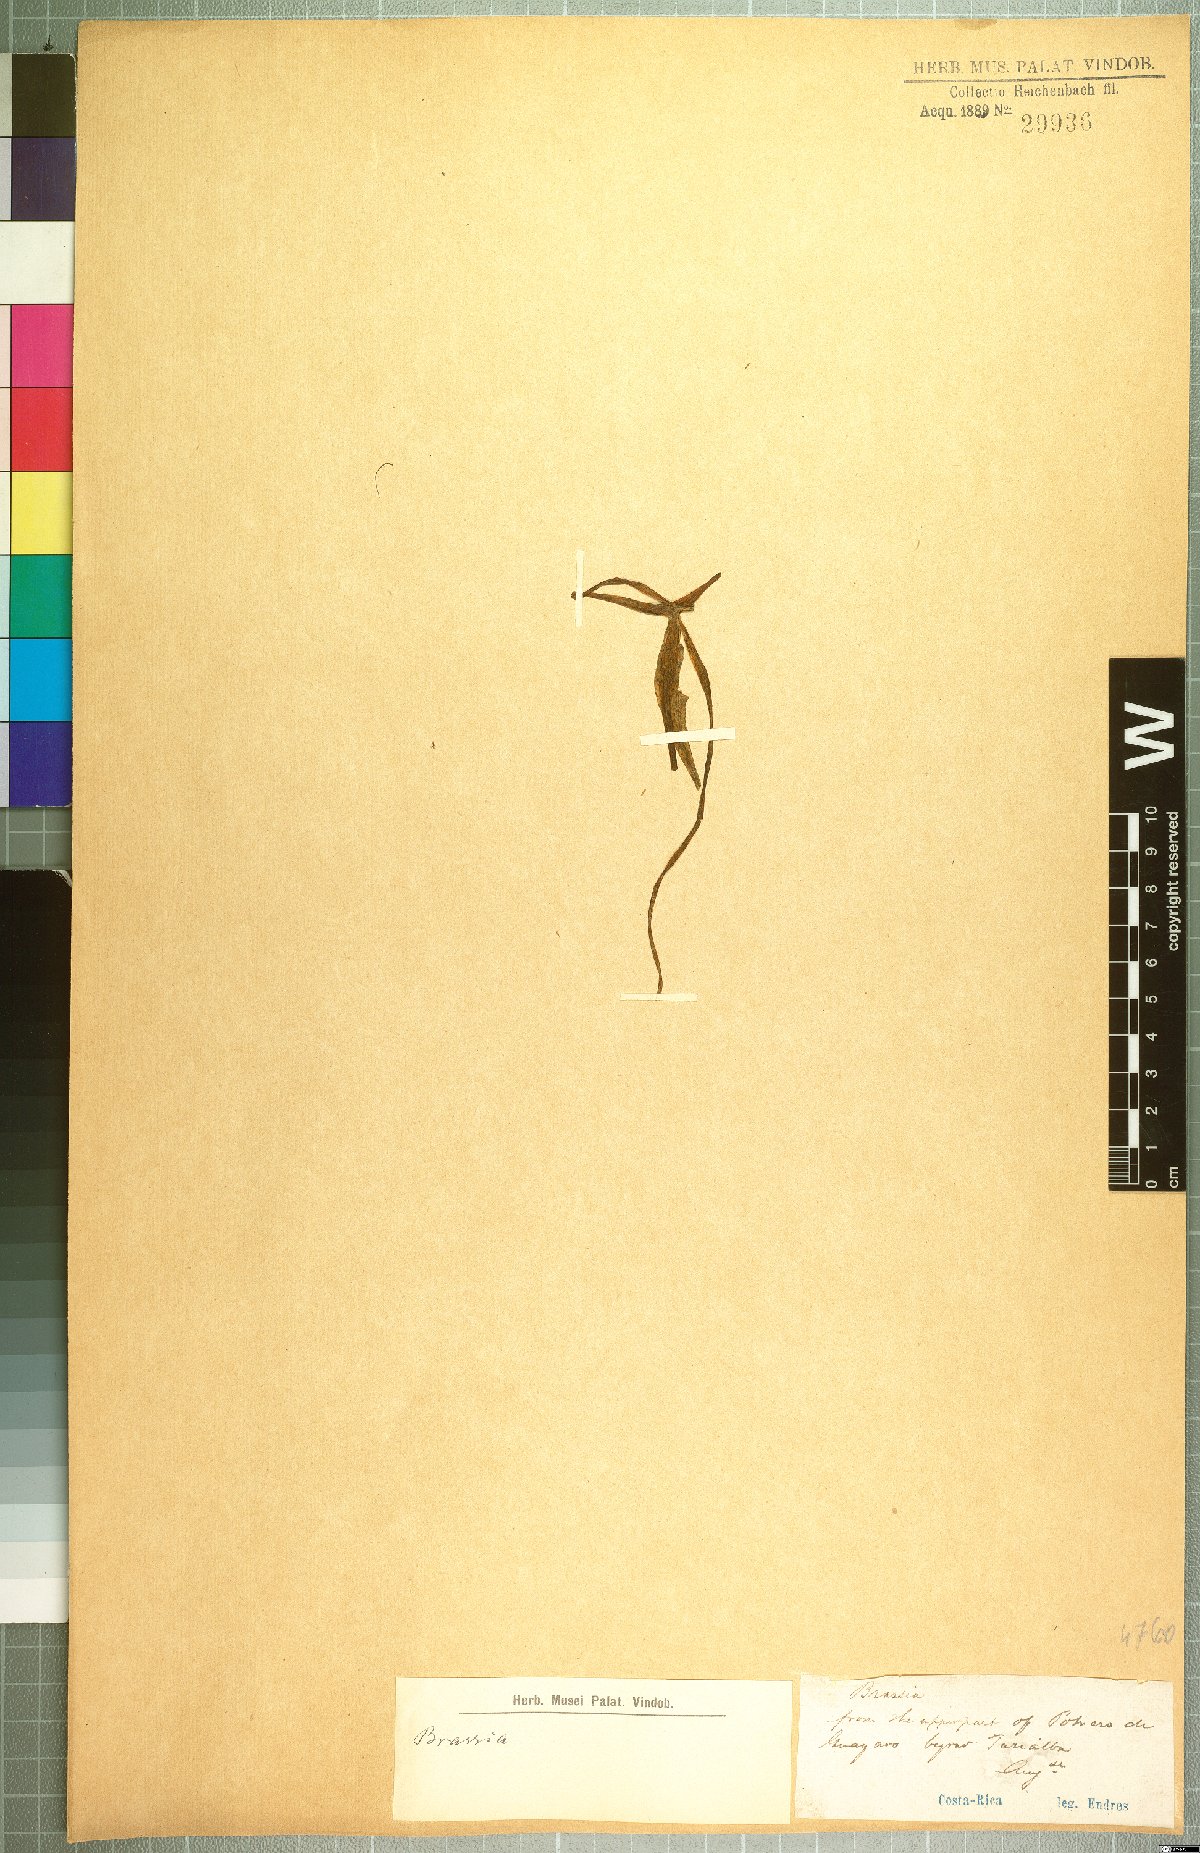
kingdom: Plantae
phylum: Tracheophyta
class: Liliopsida
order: Asparagales
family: Orchidaceae
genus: Brassia
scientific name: Brassia
